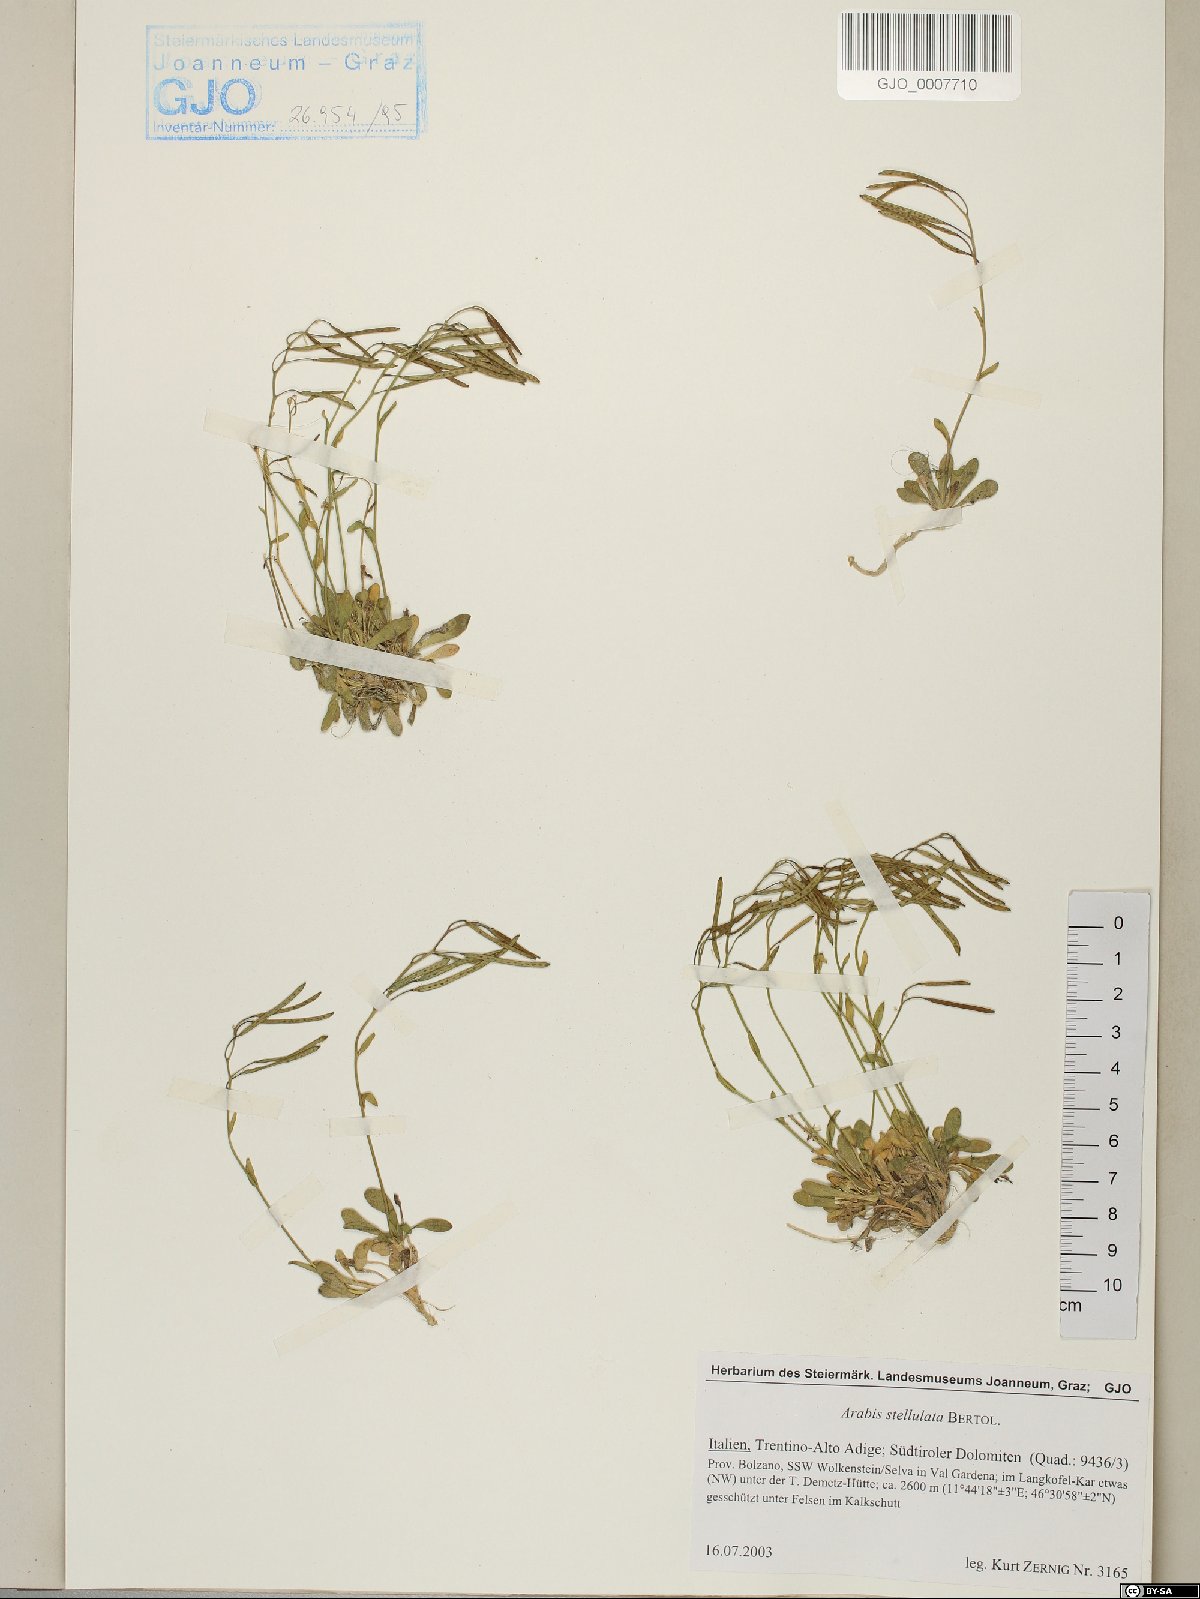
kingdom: Plantae
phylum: Tracheophyta
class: Magnoliopsida
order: Brassicales
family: Brassicaceae
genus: Arabis
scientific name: Arabis stellulata
